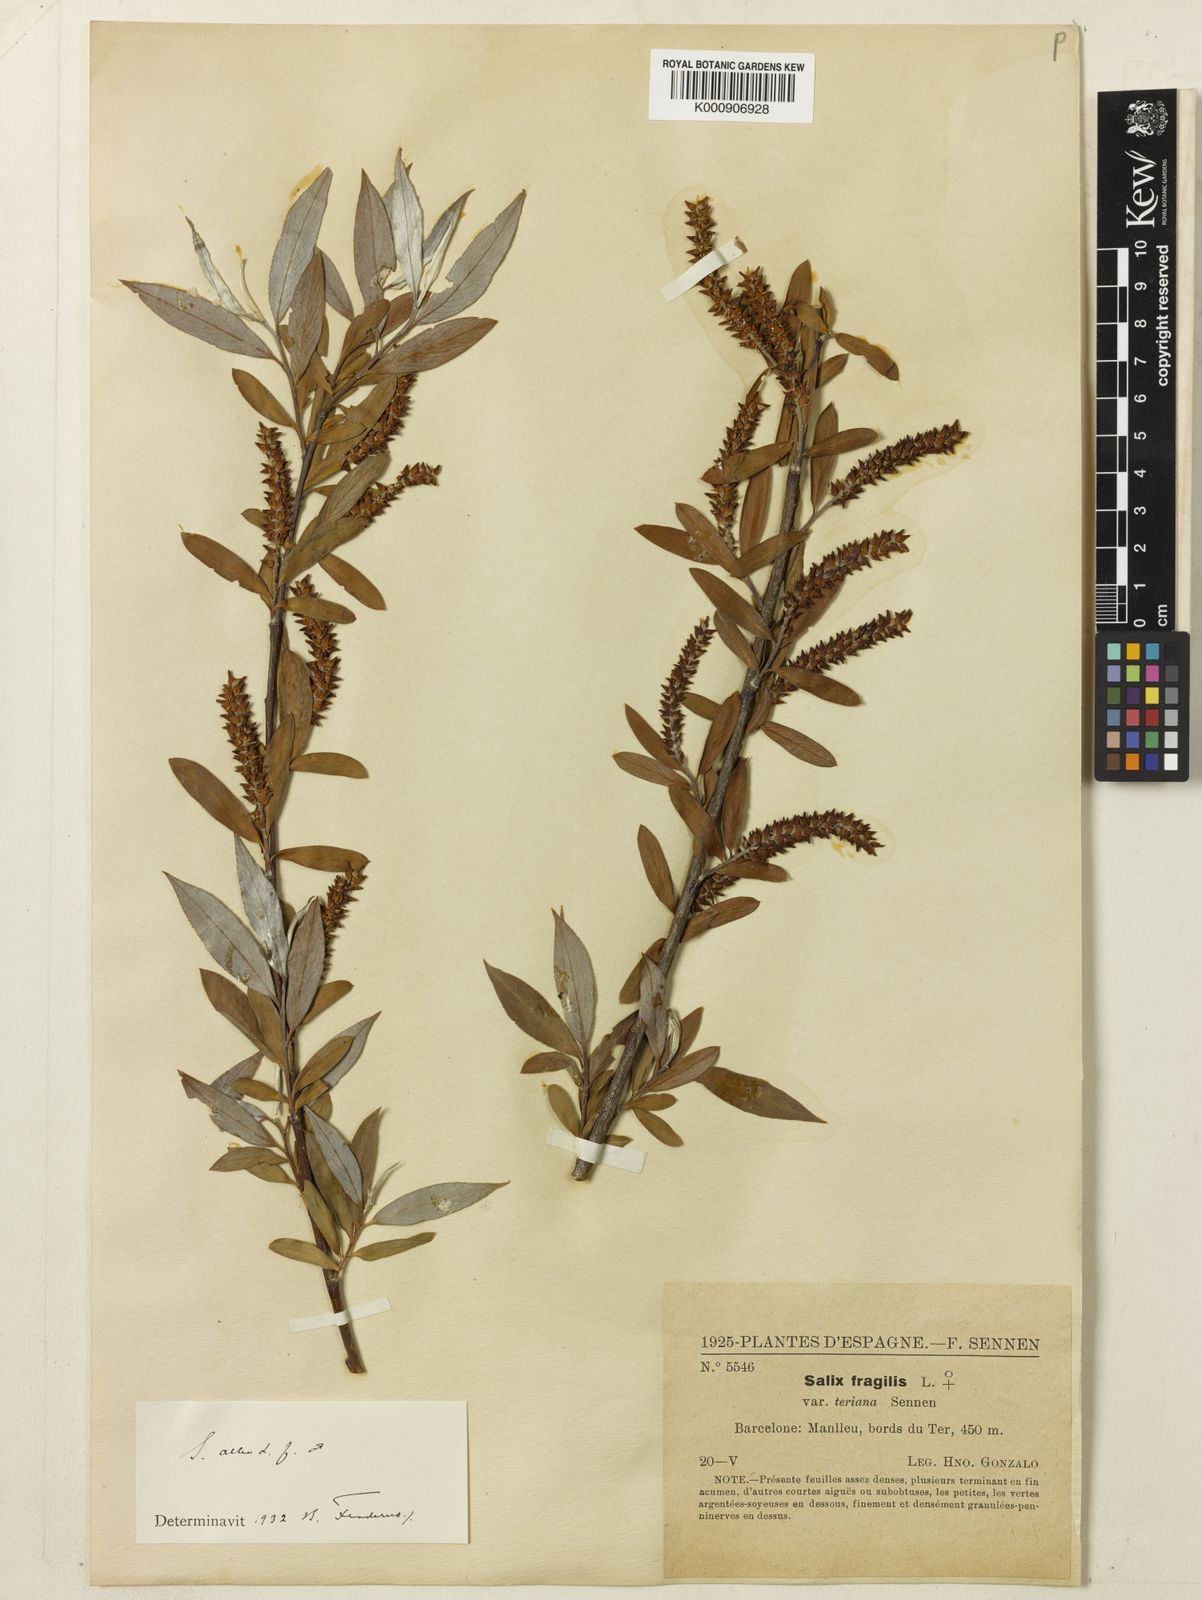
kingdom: Plantae
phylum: Tracheophyta
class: Magnoliopsida
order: Malpighiales
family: Salicaceae
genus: Salix
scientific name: Salix alba
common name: White willow
